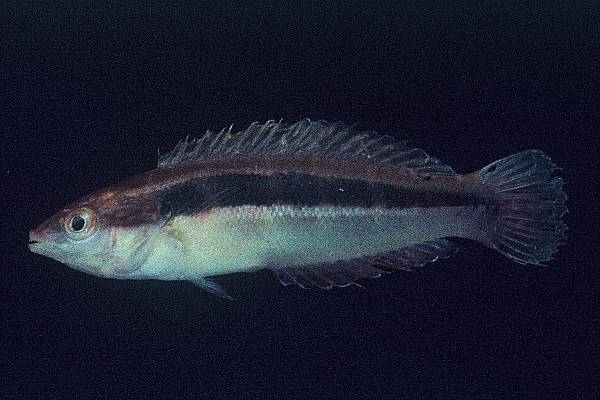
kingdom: Animalia
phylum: Chordata
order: Perciformes
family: Labridae
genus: Coris
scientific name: Coris caudimacula
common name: Spottail coris
